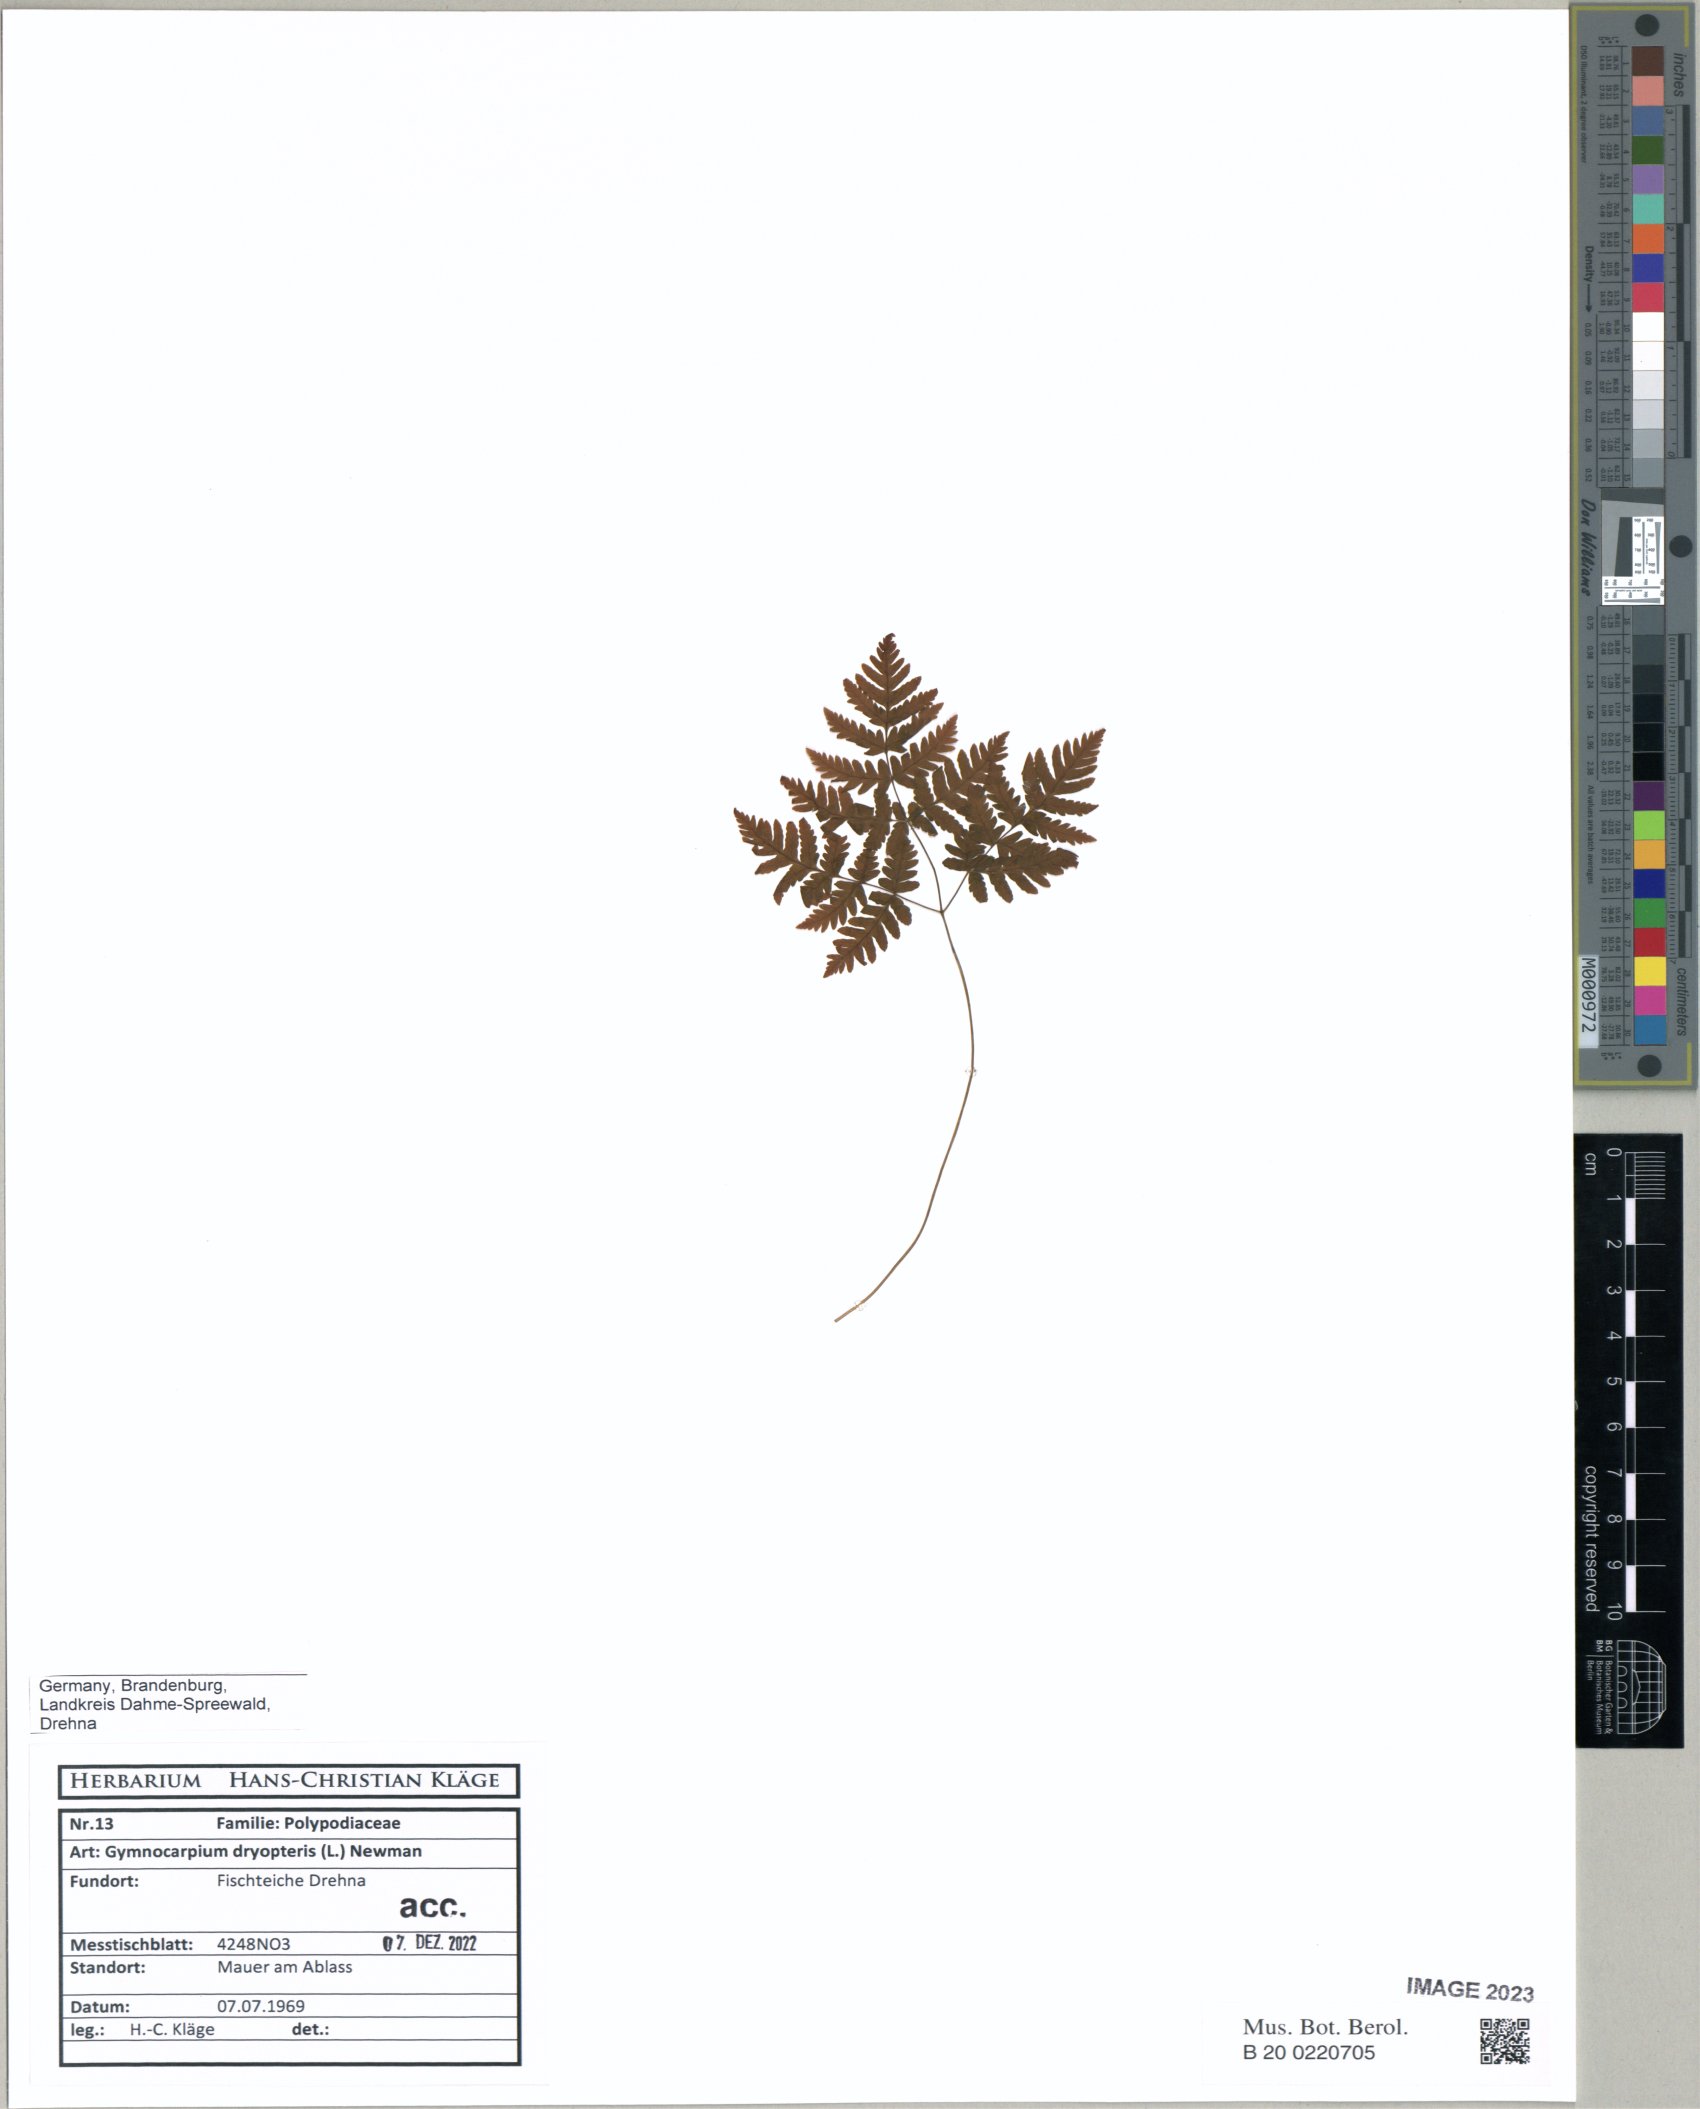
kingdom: Plantae
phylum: Tracheophyta
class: Polypodiopsida
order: Polypodiales
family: Cystopteridaceae
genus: Gymnocarpium
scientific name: Gymnocarpium dryopteris
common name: Oak fern
